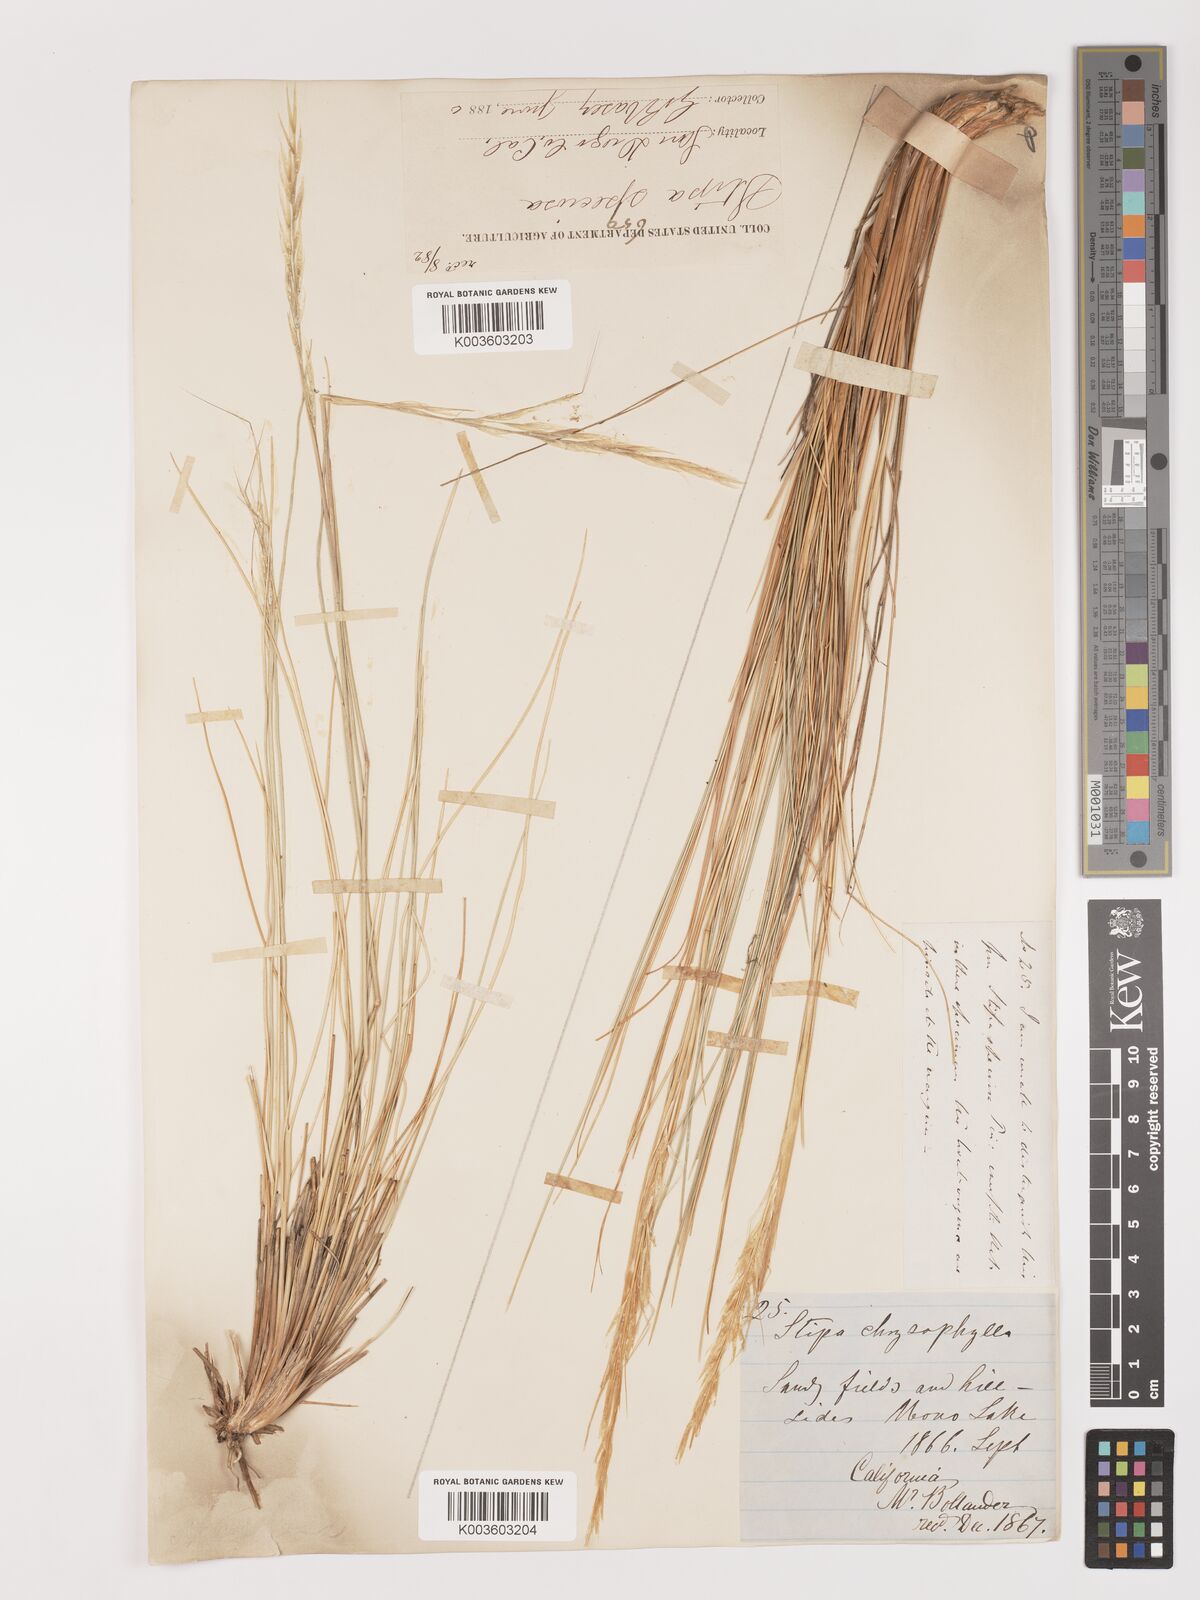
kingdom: Plantae
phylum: Tracheophyta
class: Liliopsida
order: Poales
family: Poaceae
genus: Pappostipa
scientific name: Pappostipa speciosa
